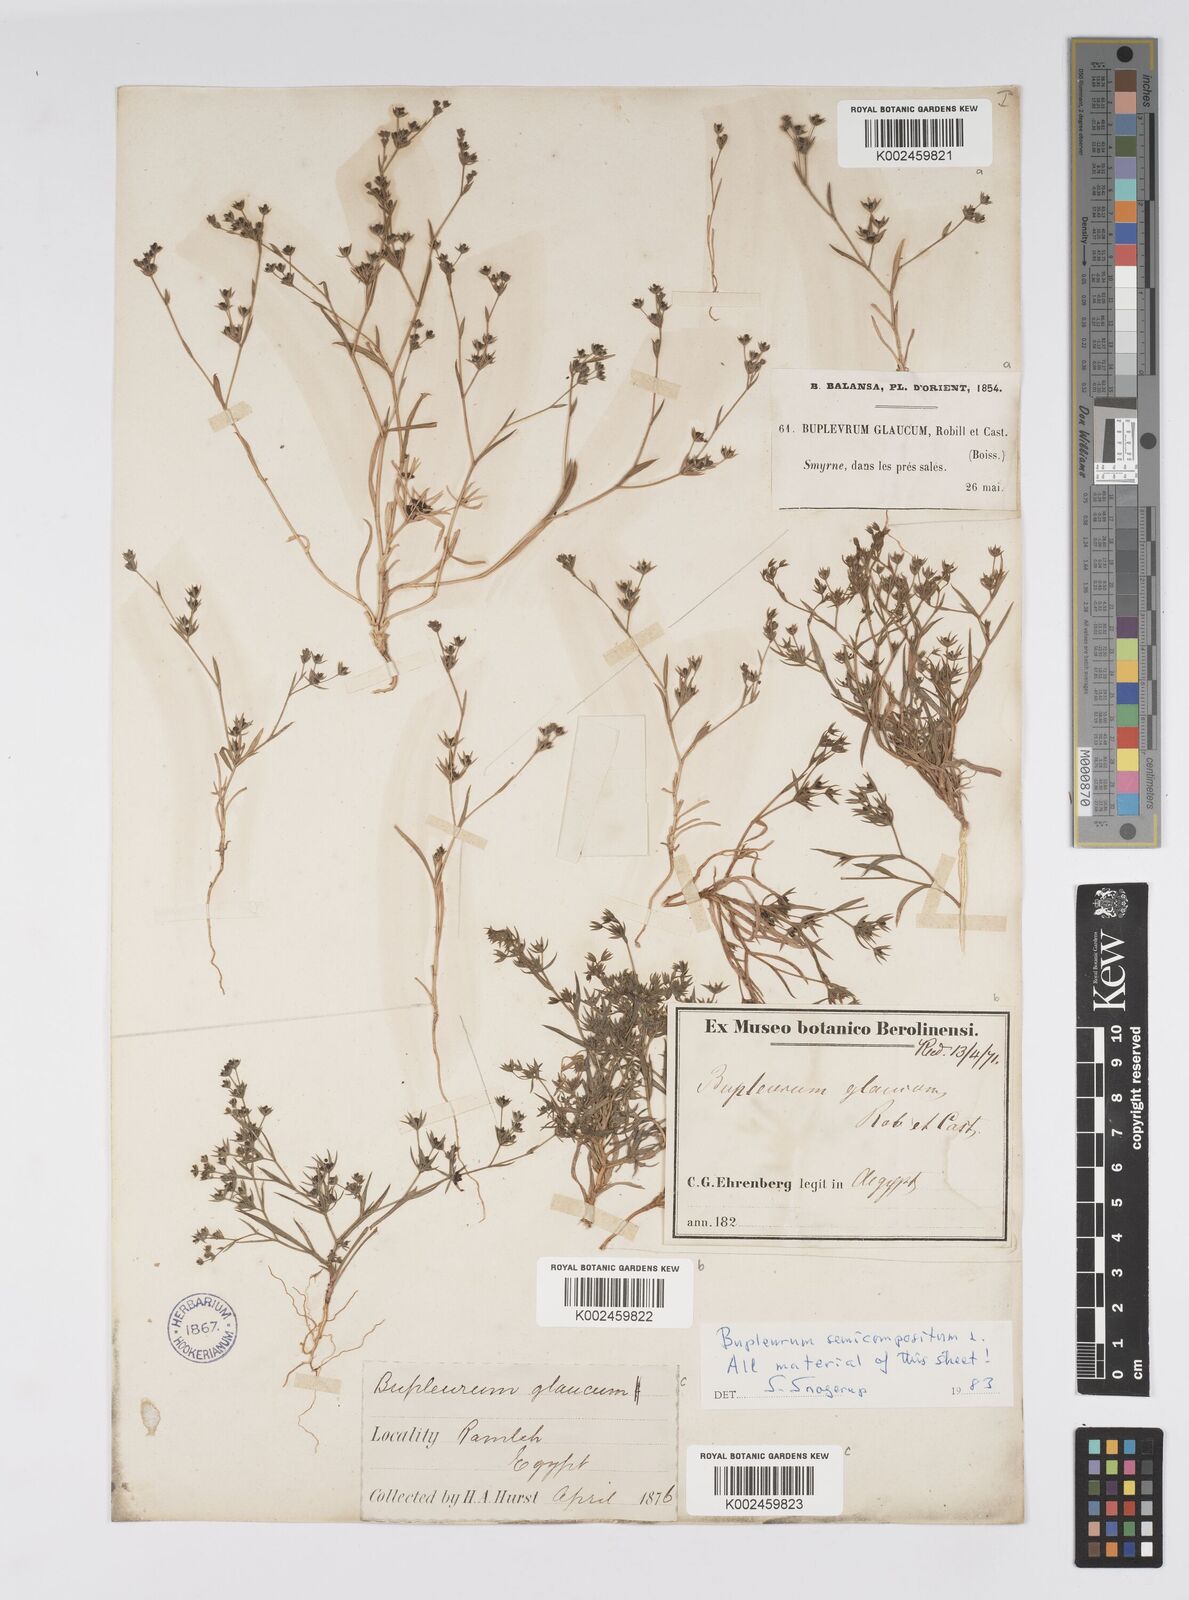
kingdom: Plantae
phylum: Tracheophyta
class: Magnoliopsida
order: Apiales
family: Apiaceae
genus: Bupleurum
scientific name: Bupleurum semicompositum
